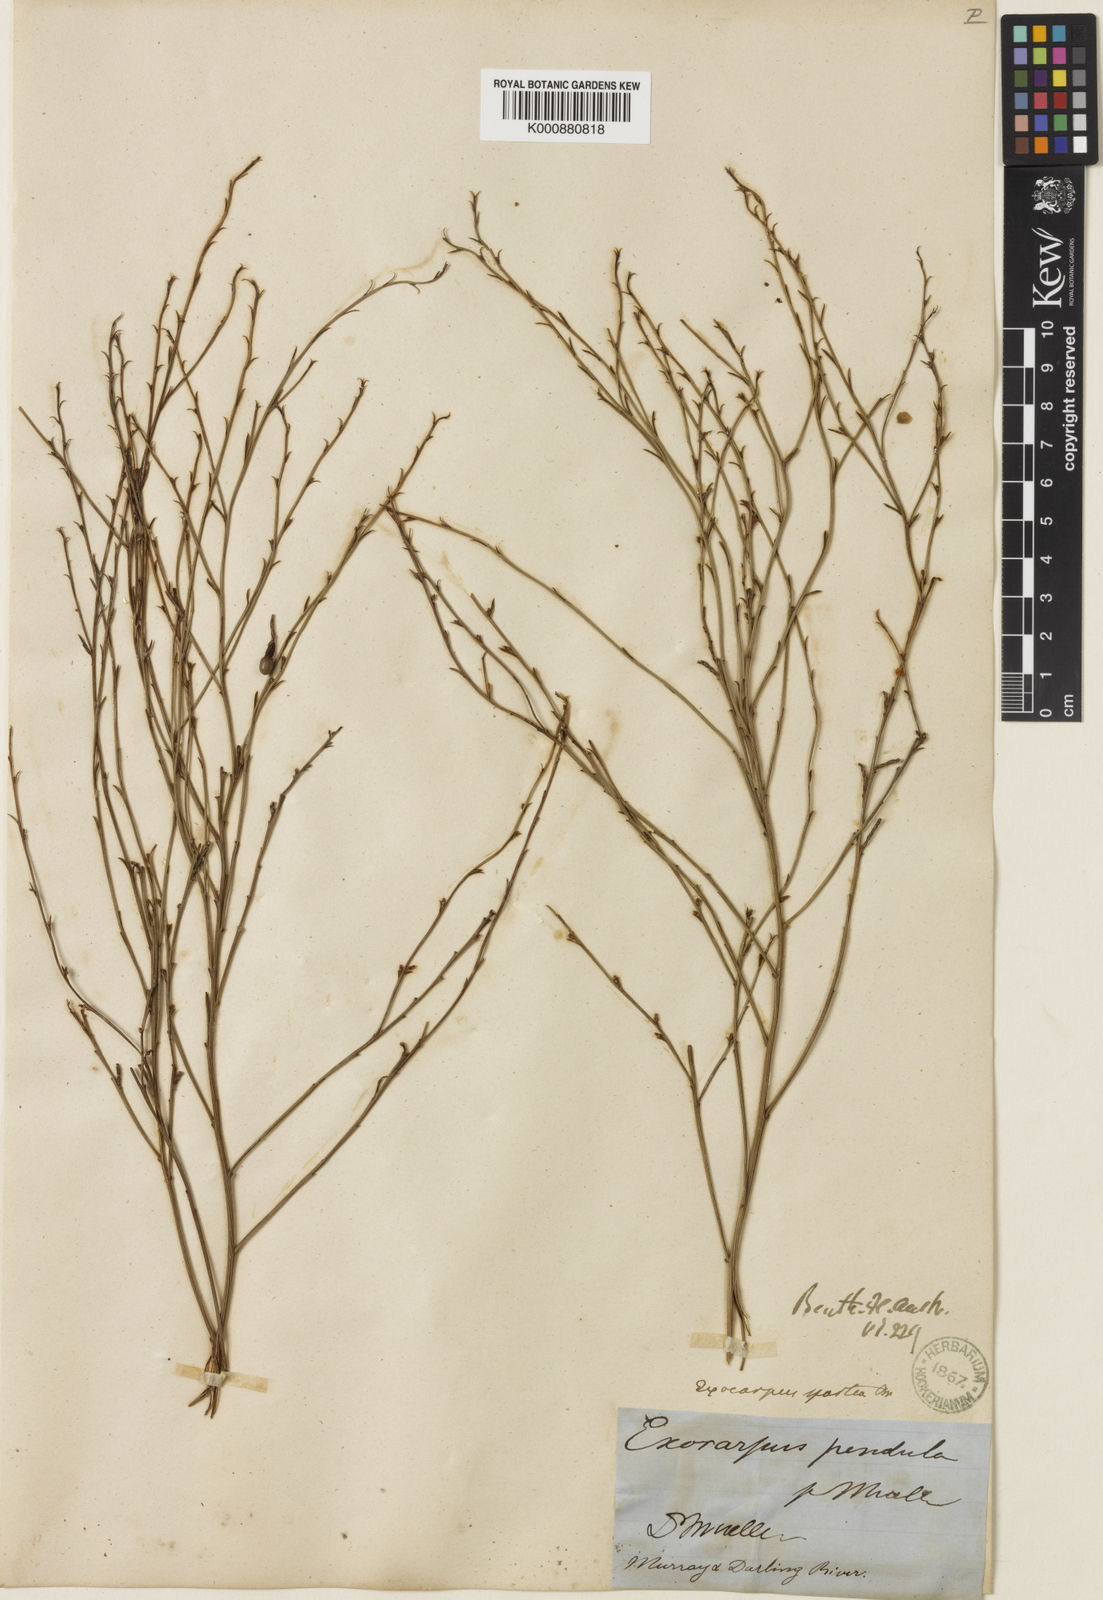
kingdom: Plantae
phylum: Tracheophyta
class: Magnoliopsida
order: Santalales
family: Santalaceae
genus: Exocarpos
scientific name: Exocarpos sparteus
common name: Broom ballart
